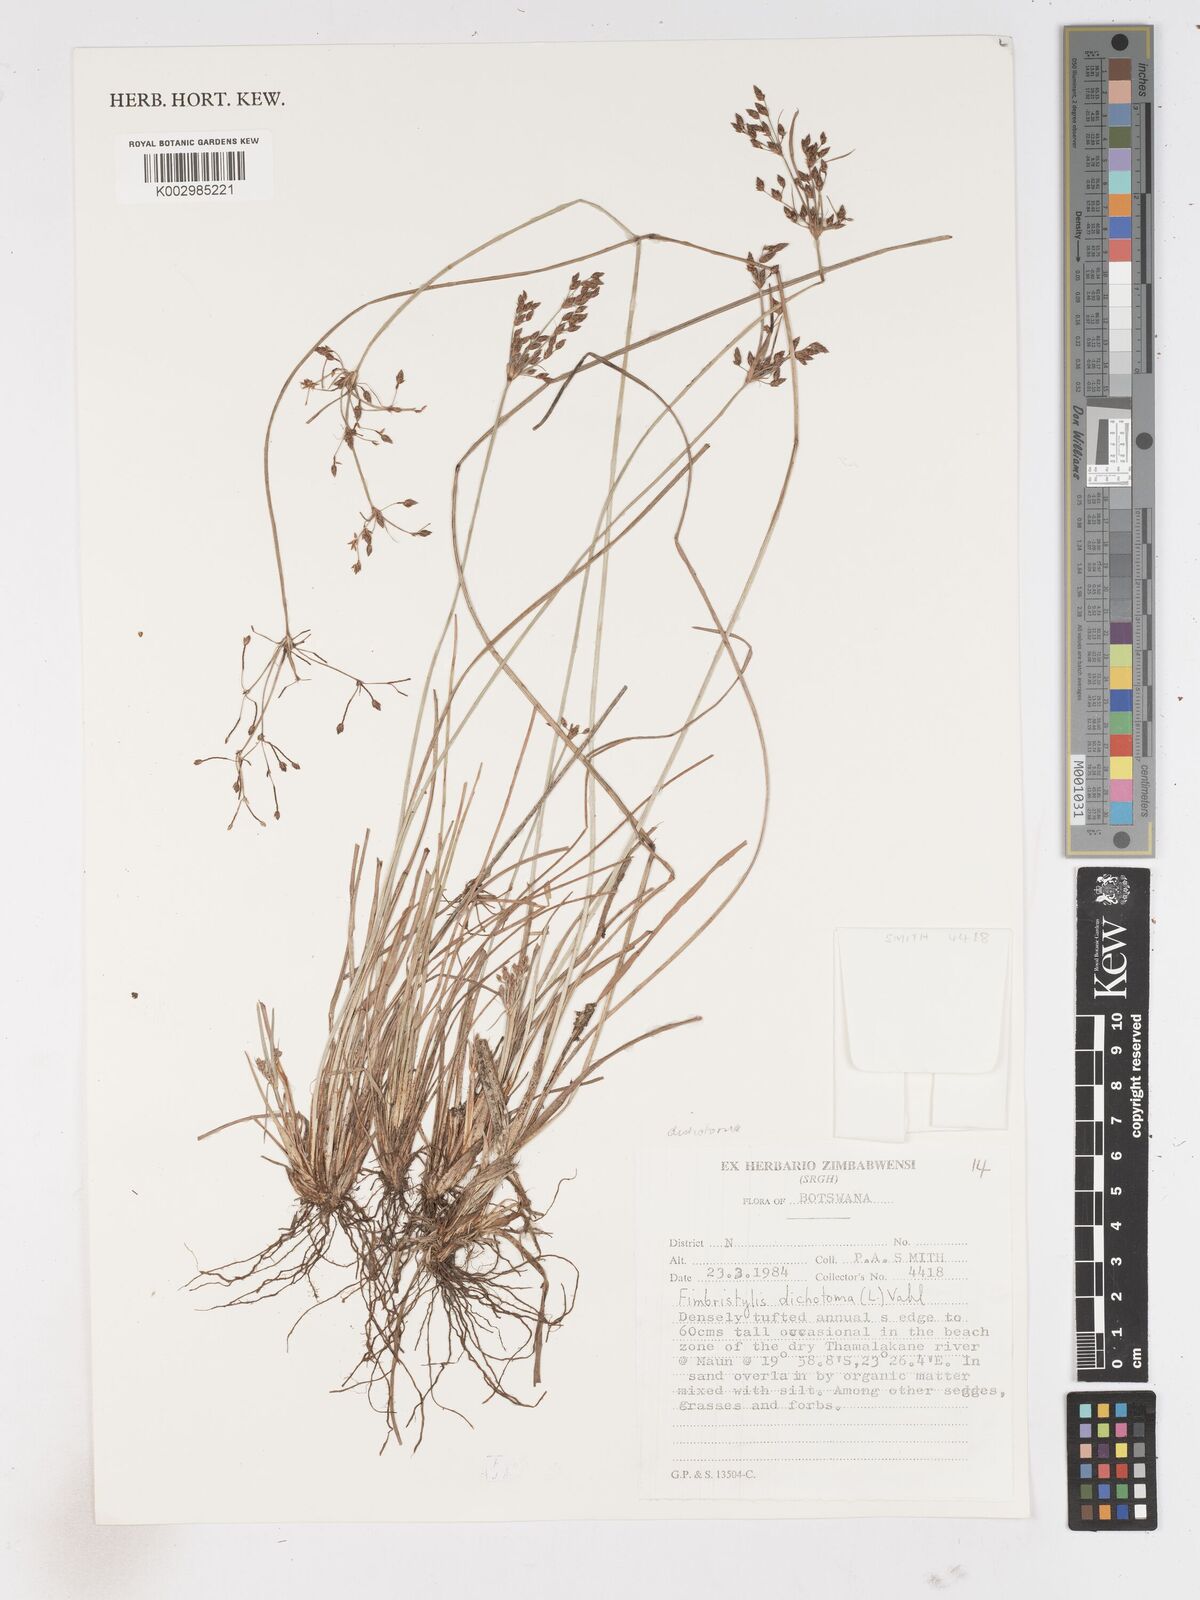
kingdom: Plantae
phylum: Tracheophyta
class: Liliopsida
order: Poales
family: Cyperaceae
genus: Fimbristylis
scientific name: Fimbristylis pilosa
